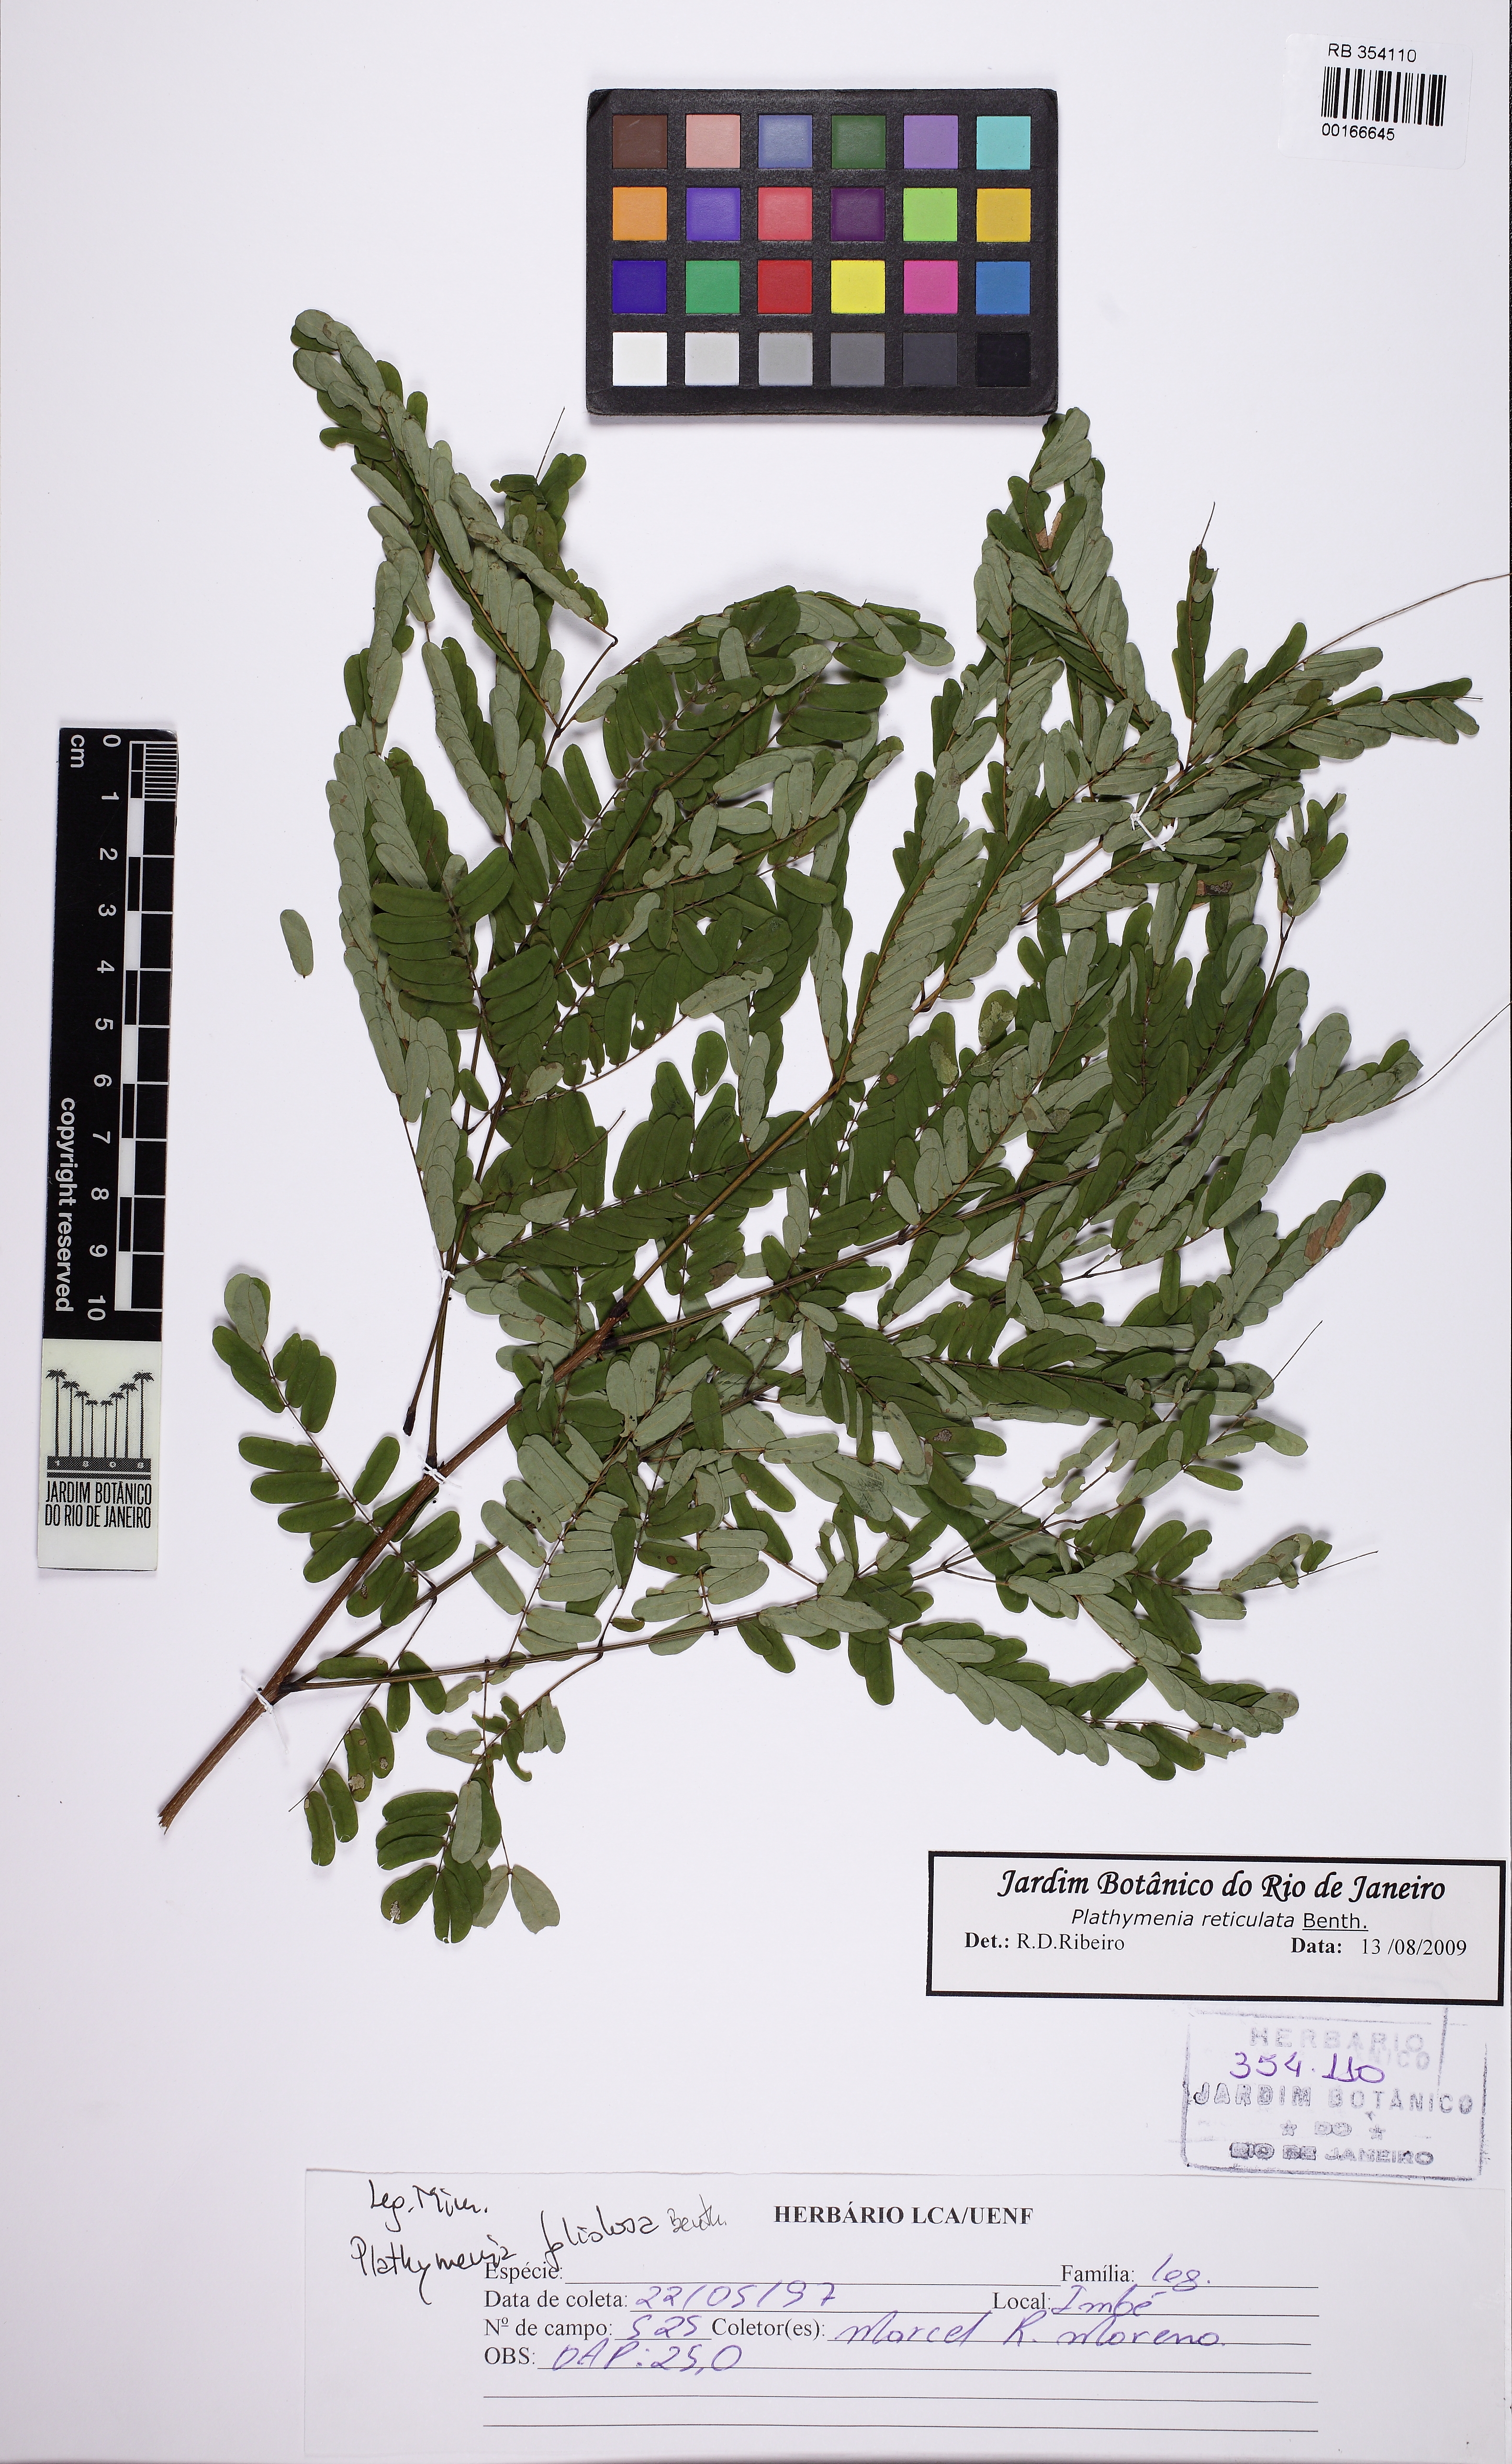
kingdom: Plantae
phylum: Tracheophyta
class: Magnoliopsida
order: Fabales
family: Fabaceae
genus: Plathymenia
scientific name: Plathymenia reticulata
